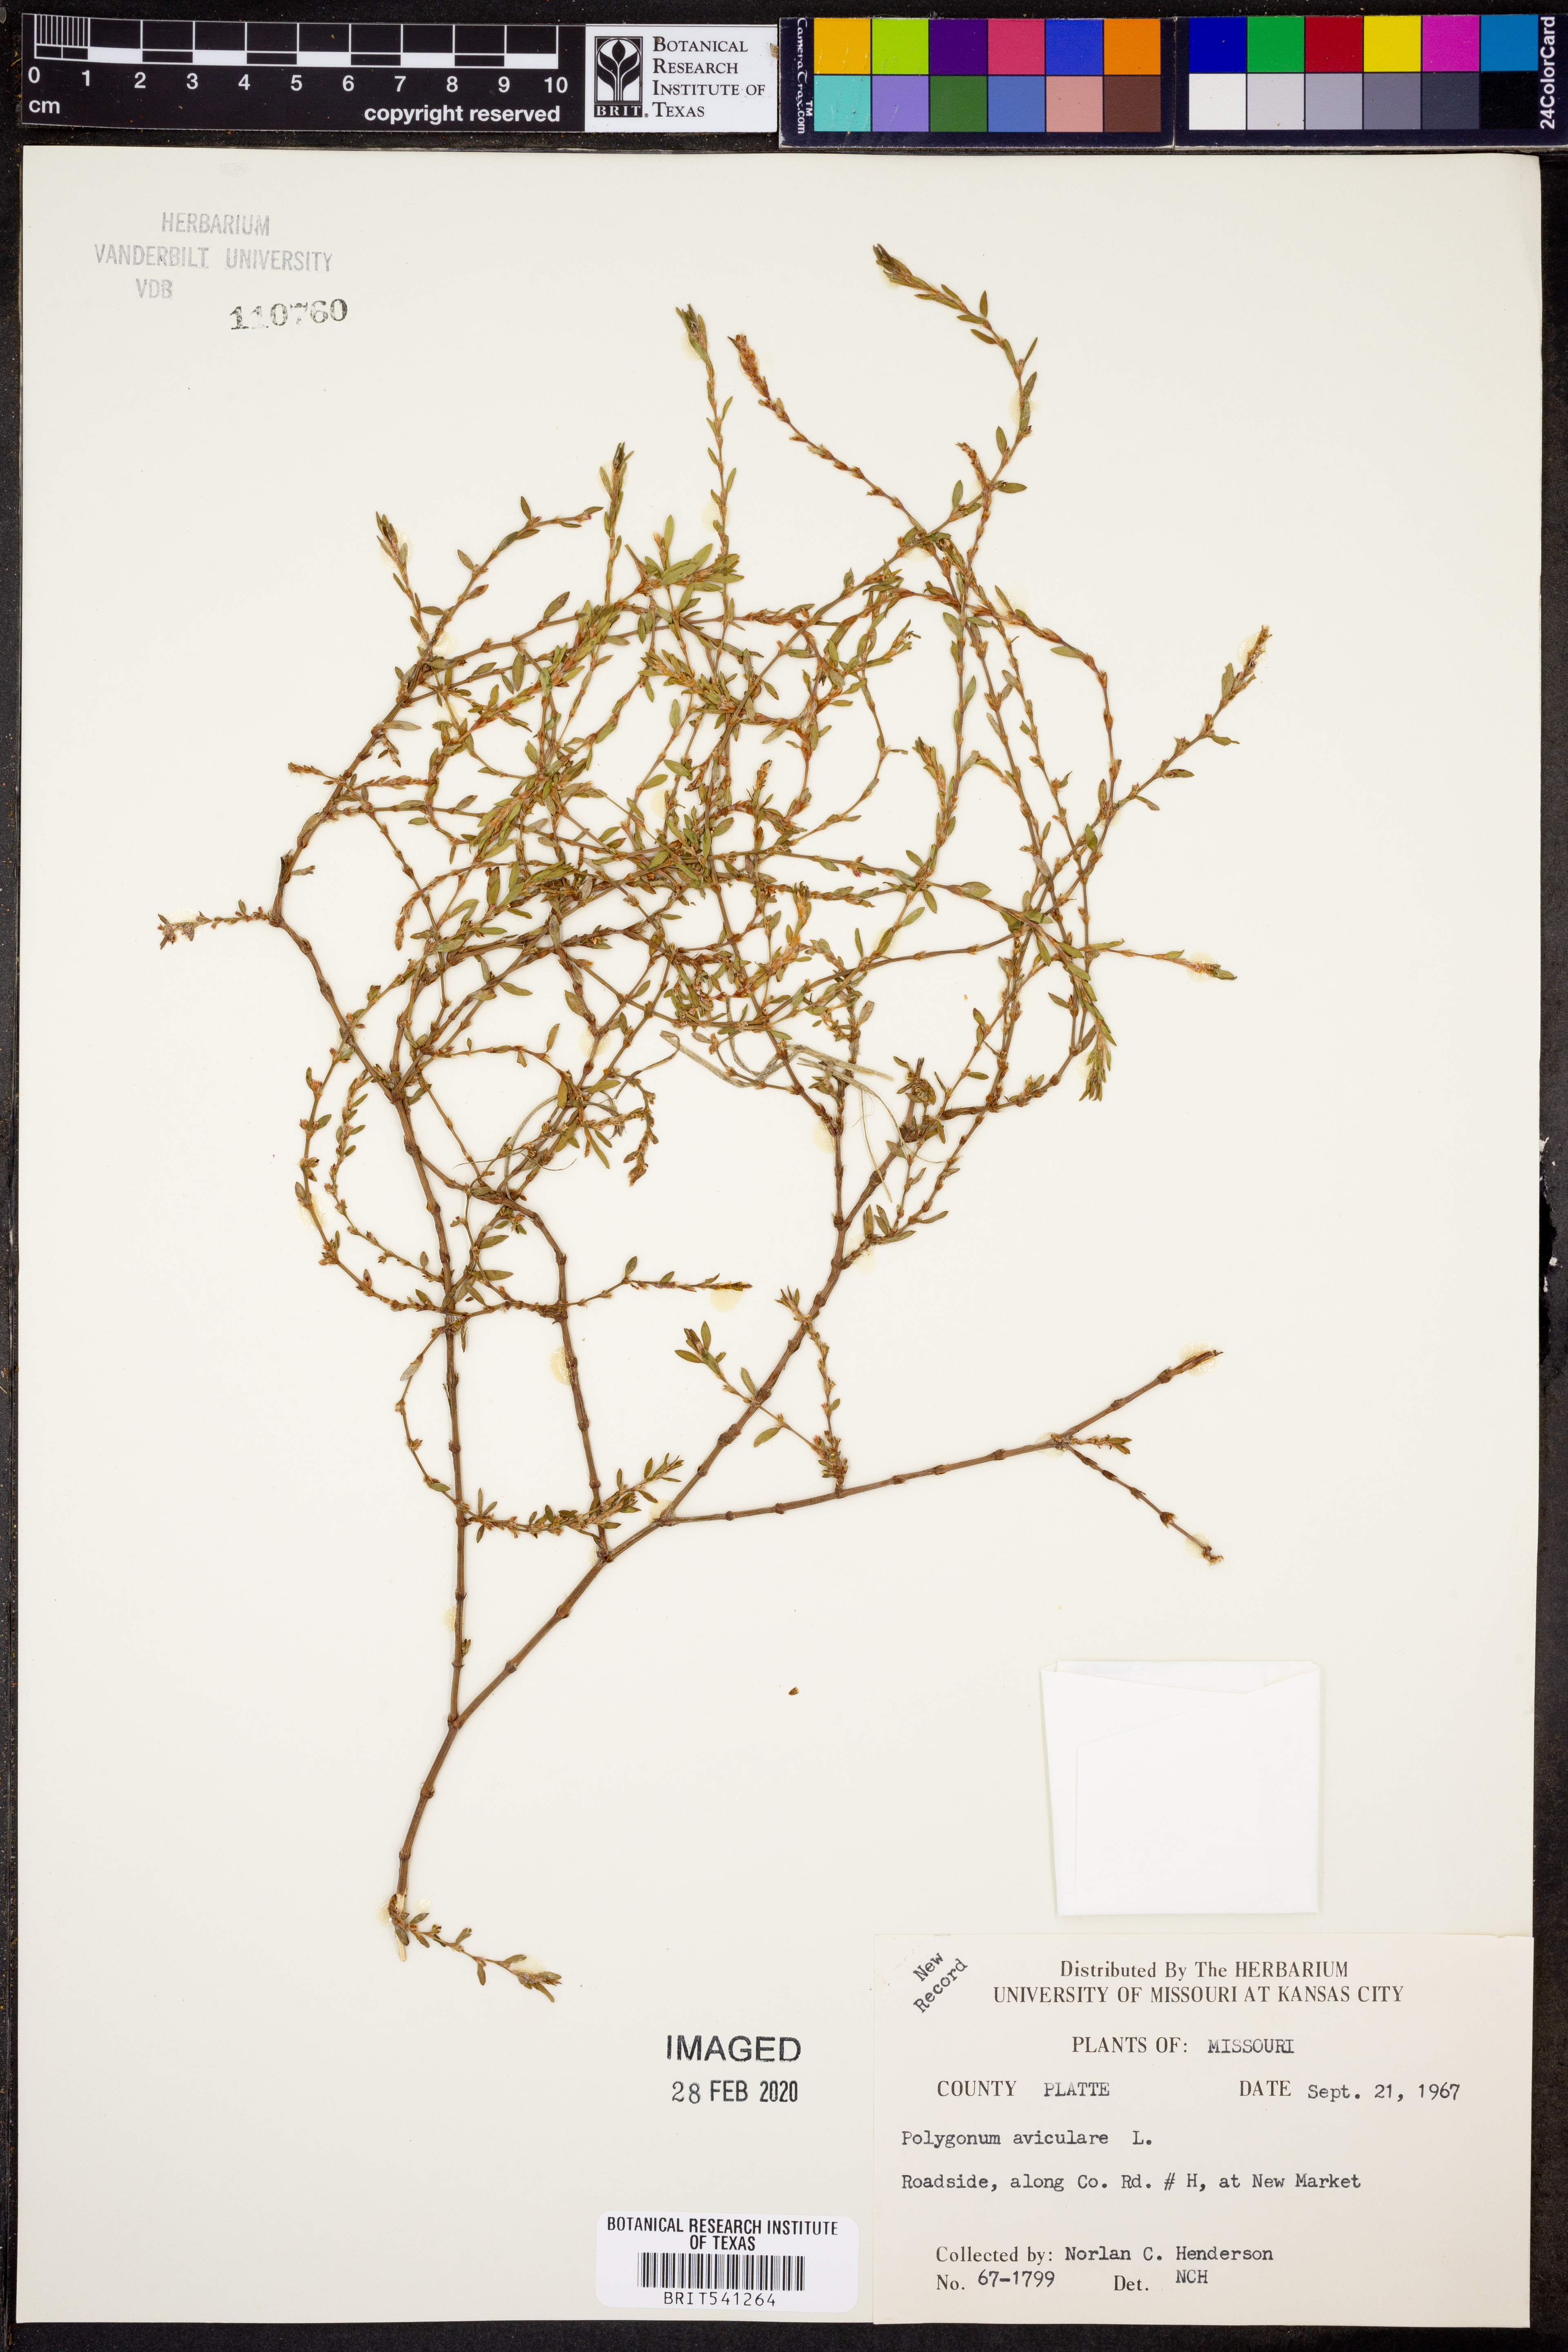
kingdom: Plantae
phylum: Tracheophyta
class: Magnoliopsida
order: Caryophyllales
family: Polygonaceae
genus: Polygonum
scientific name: Polygonum aviculare
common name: Prostrate knotweed
